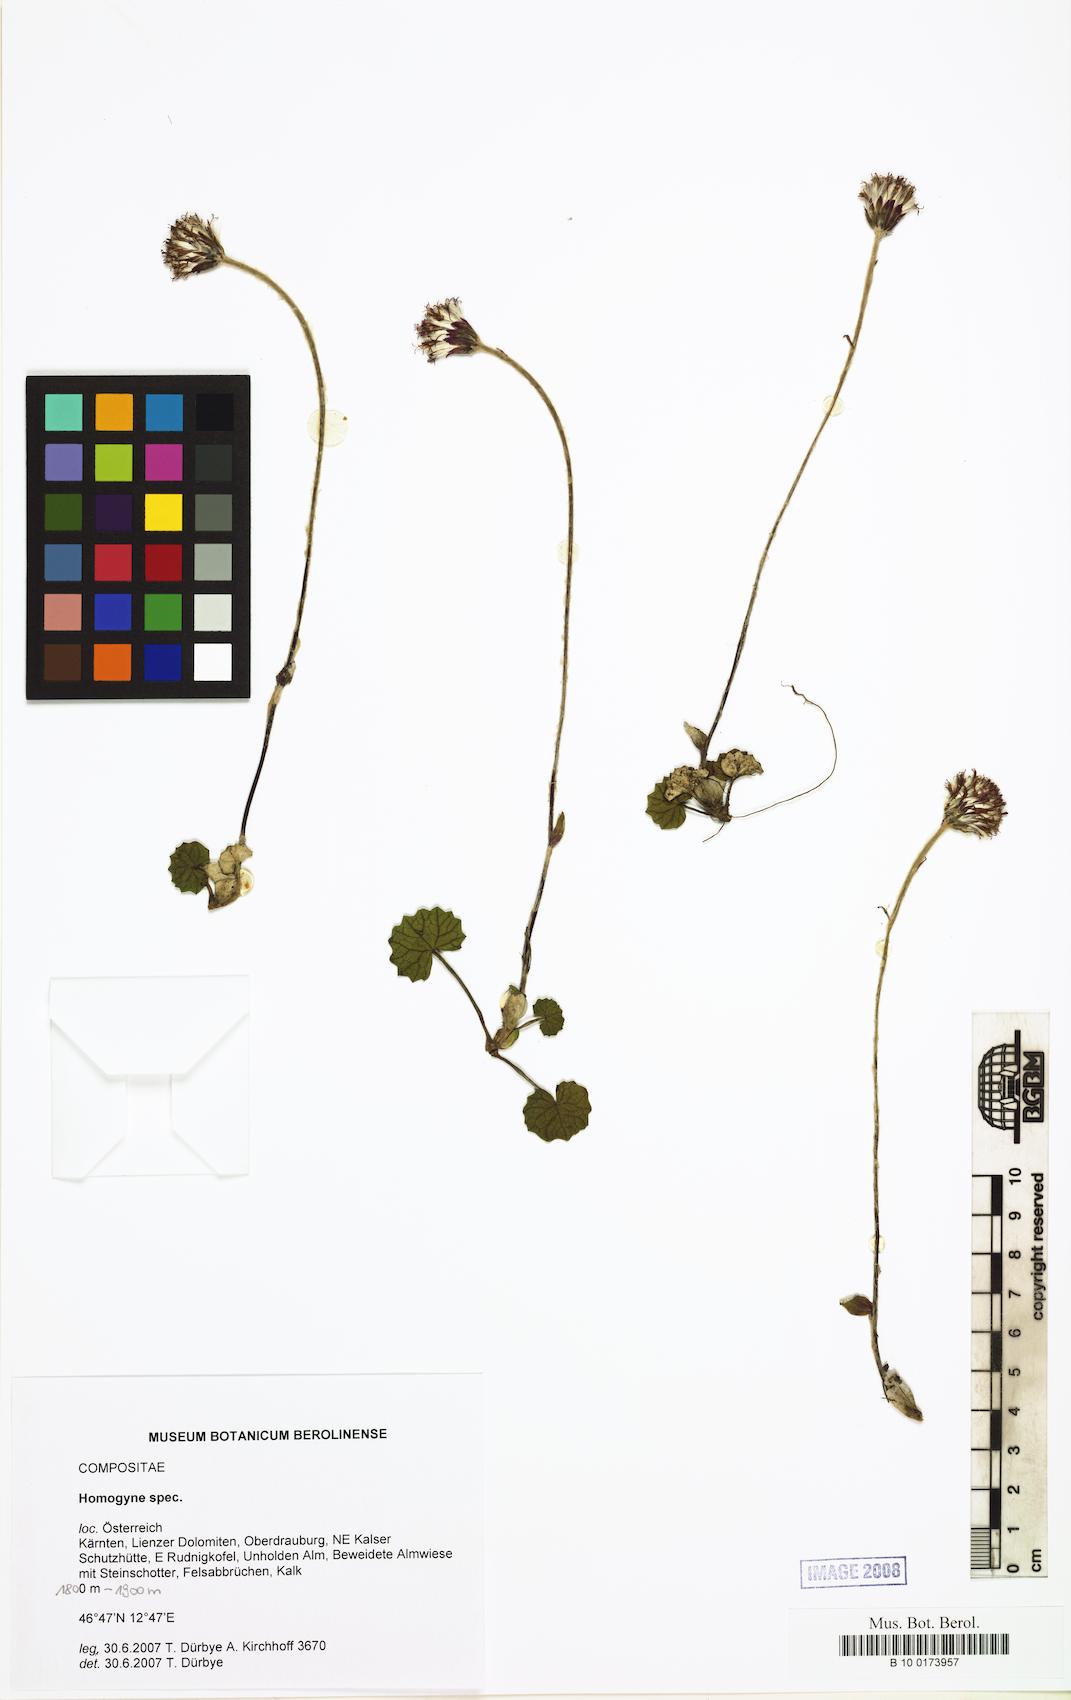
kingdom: Plantae
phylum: Tracheophyta
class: Magnoliopsida
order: Asterales
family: Asteraceae
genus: Homogyne
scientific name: Homogyne discolor
